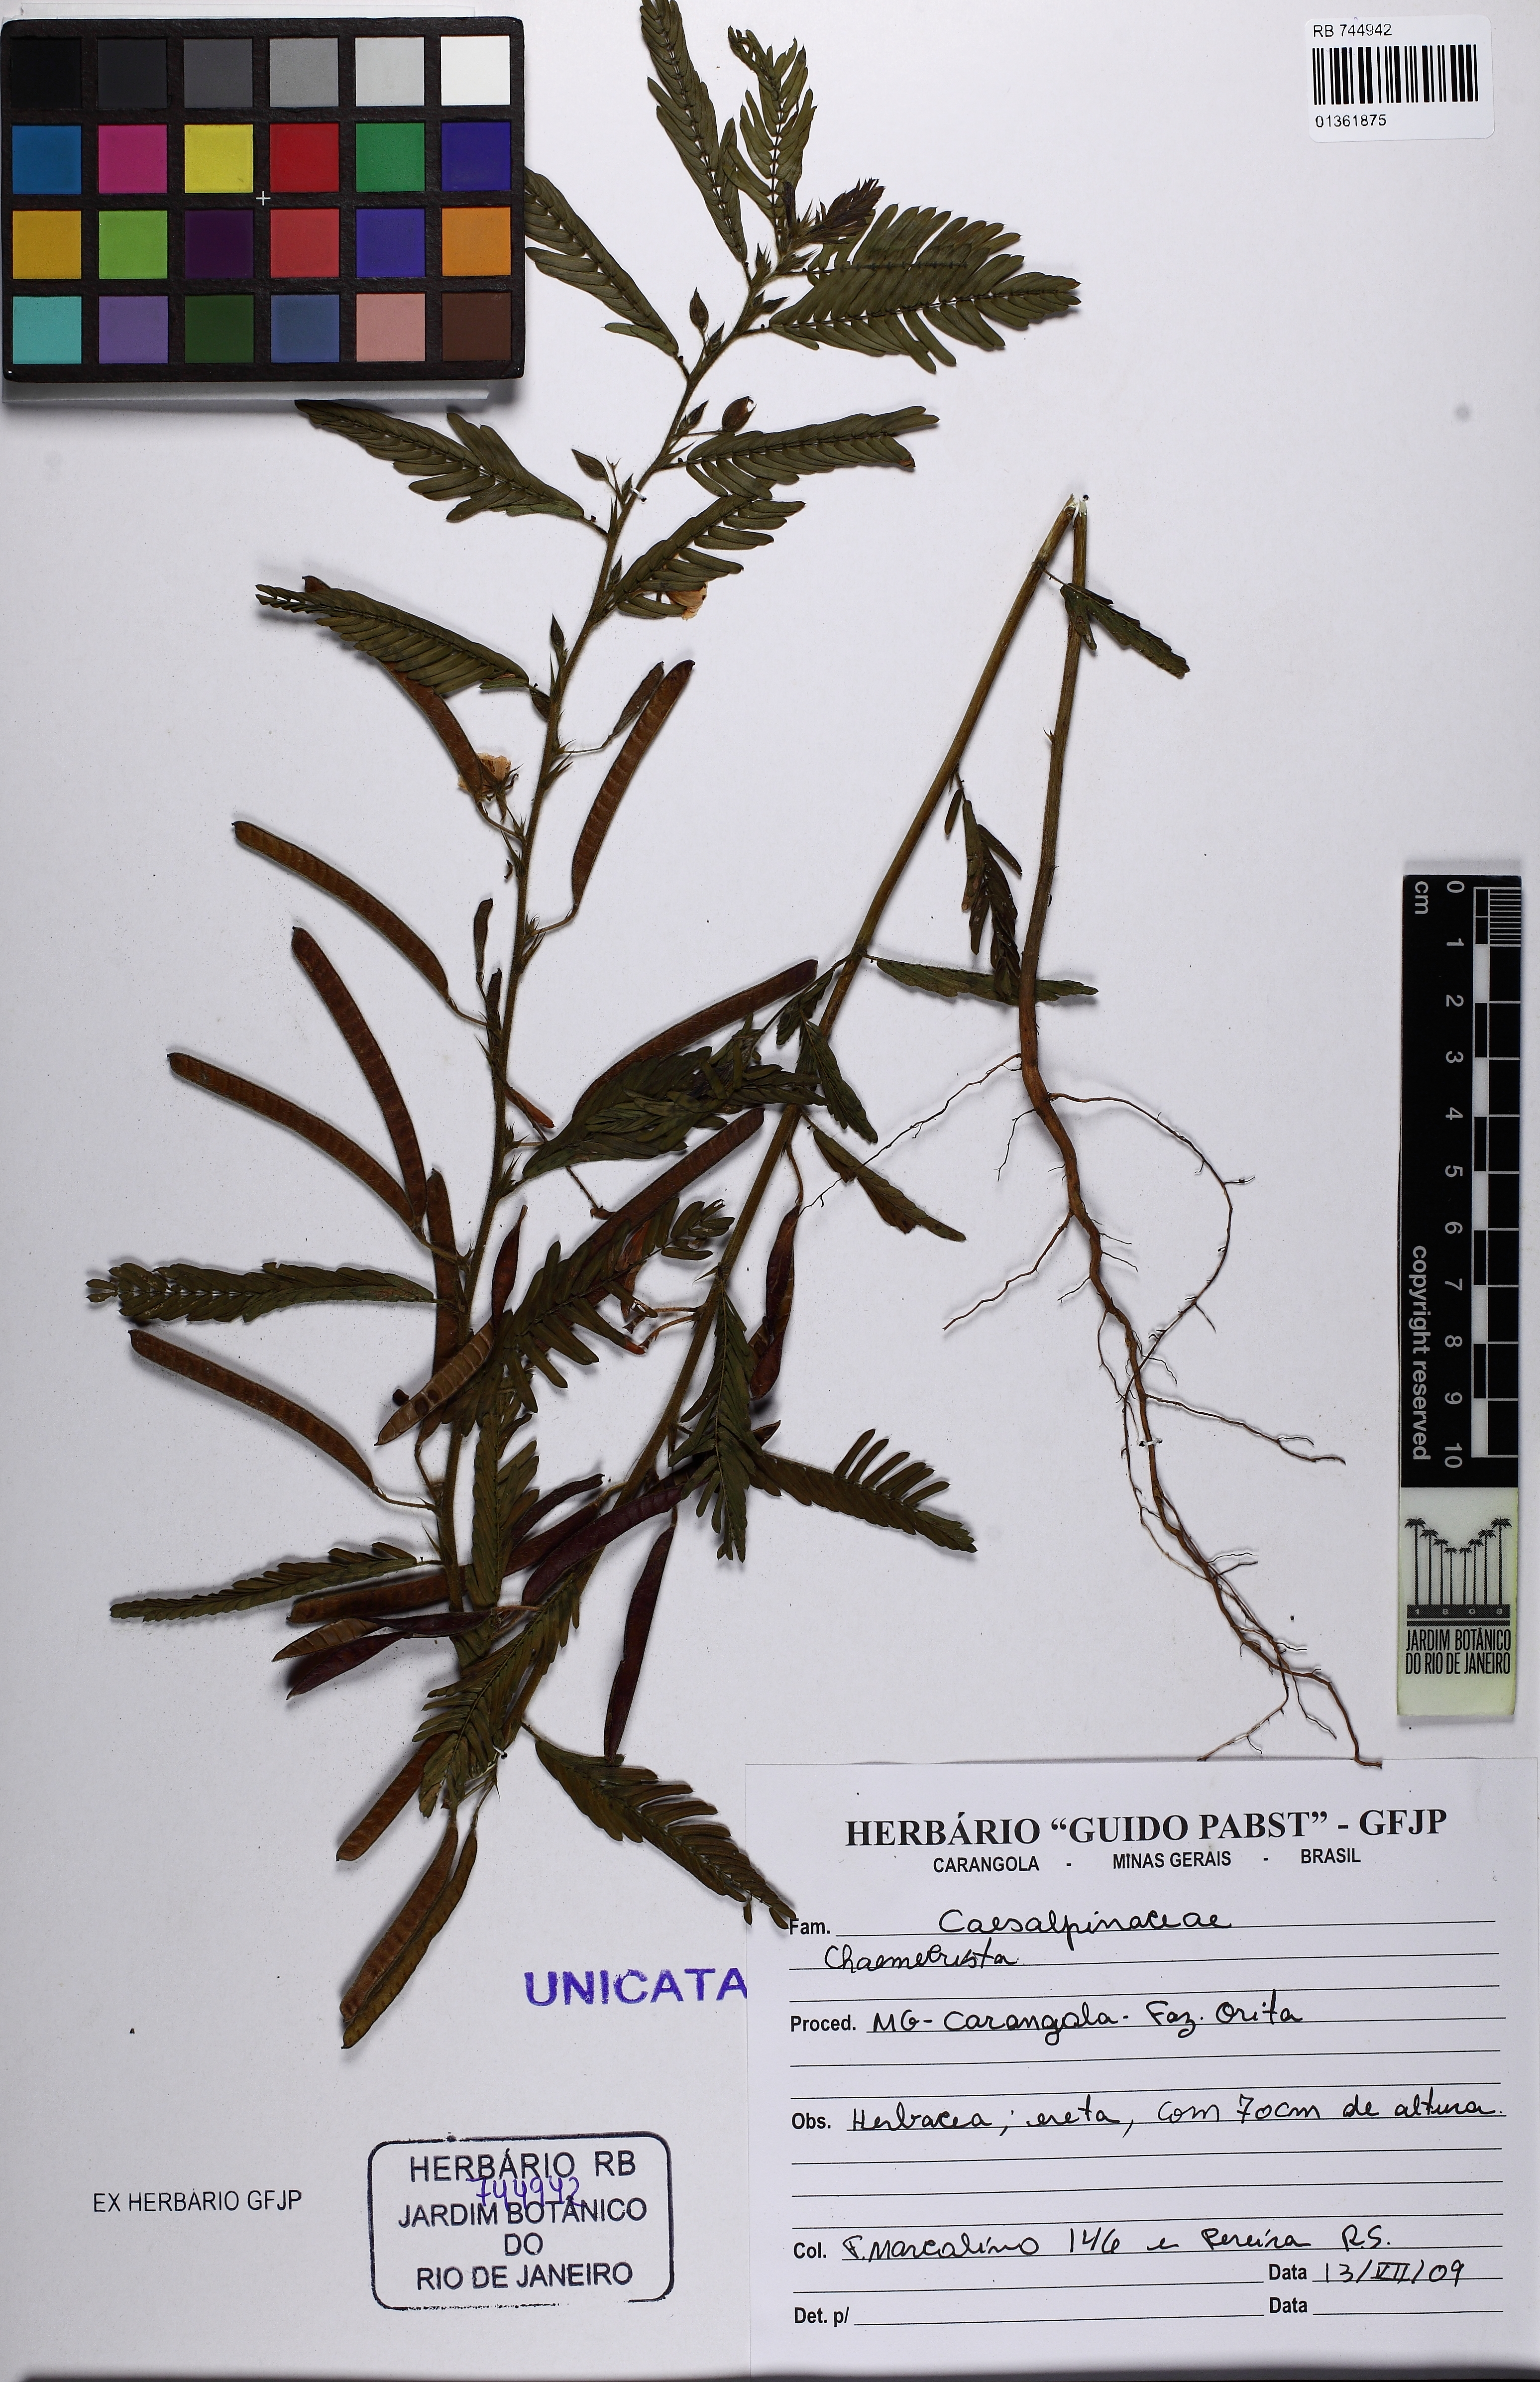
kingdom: Plantae
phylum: Tracheophyta
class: Magnoliopsida
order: Fabales
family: Fabaceae
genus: Chamaecrista
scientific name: Chamaecrista
